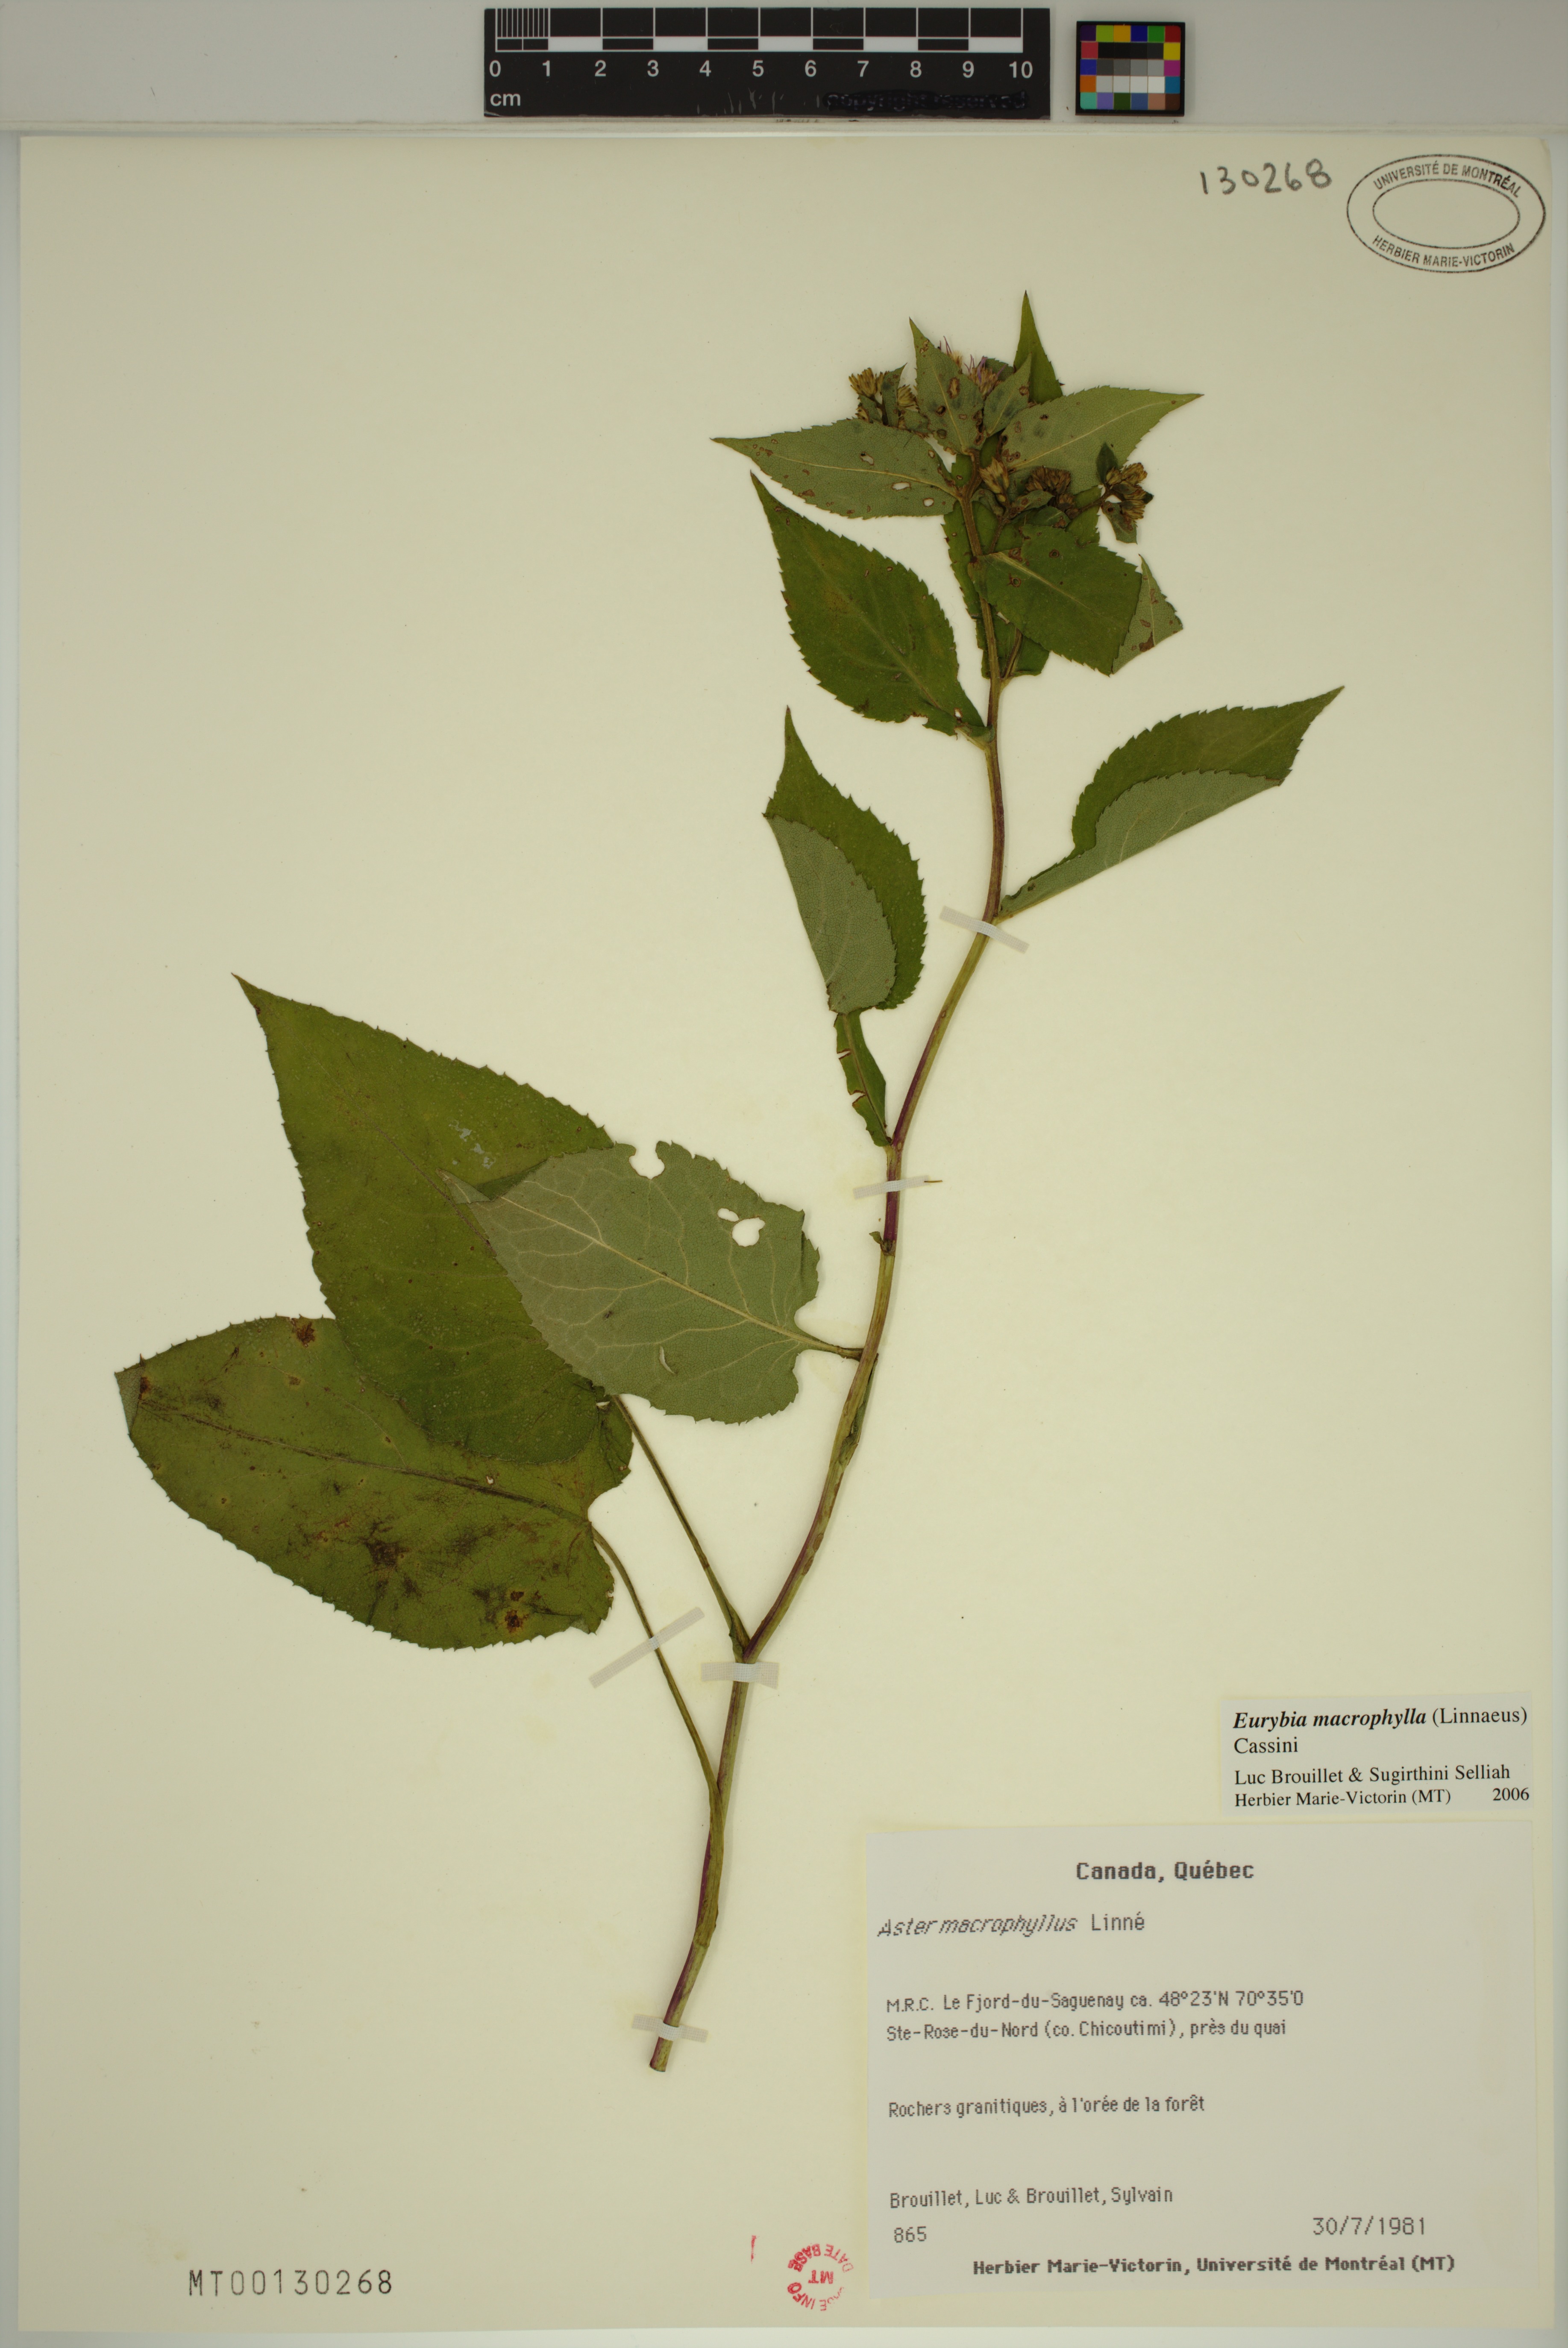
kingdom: Plantae
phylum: Tracheophyta
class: Magnoliopsida
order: Asterales
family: Asteraceae
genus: Eurybia
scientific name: Eurybia macrophylla
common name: Big-leaved aster
